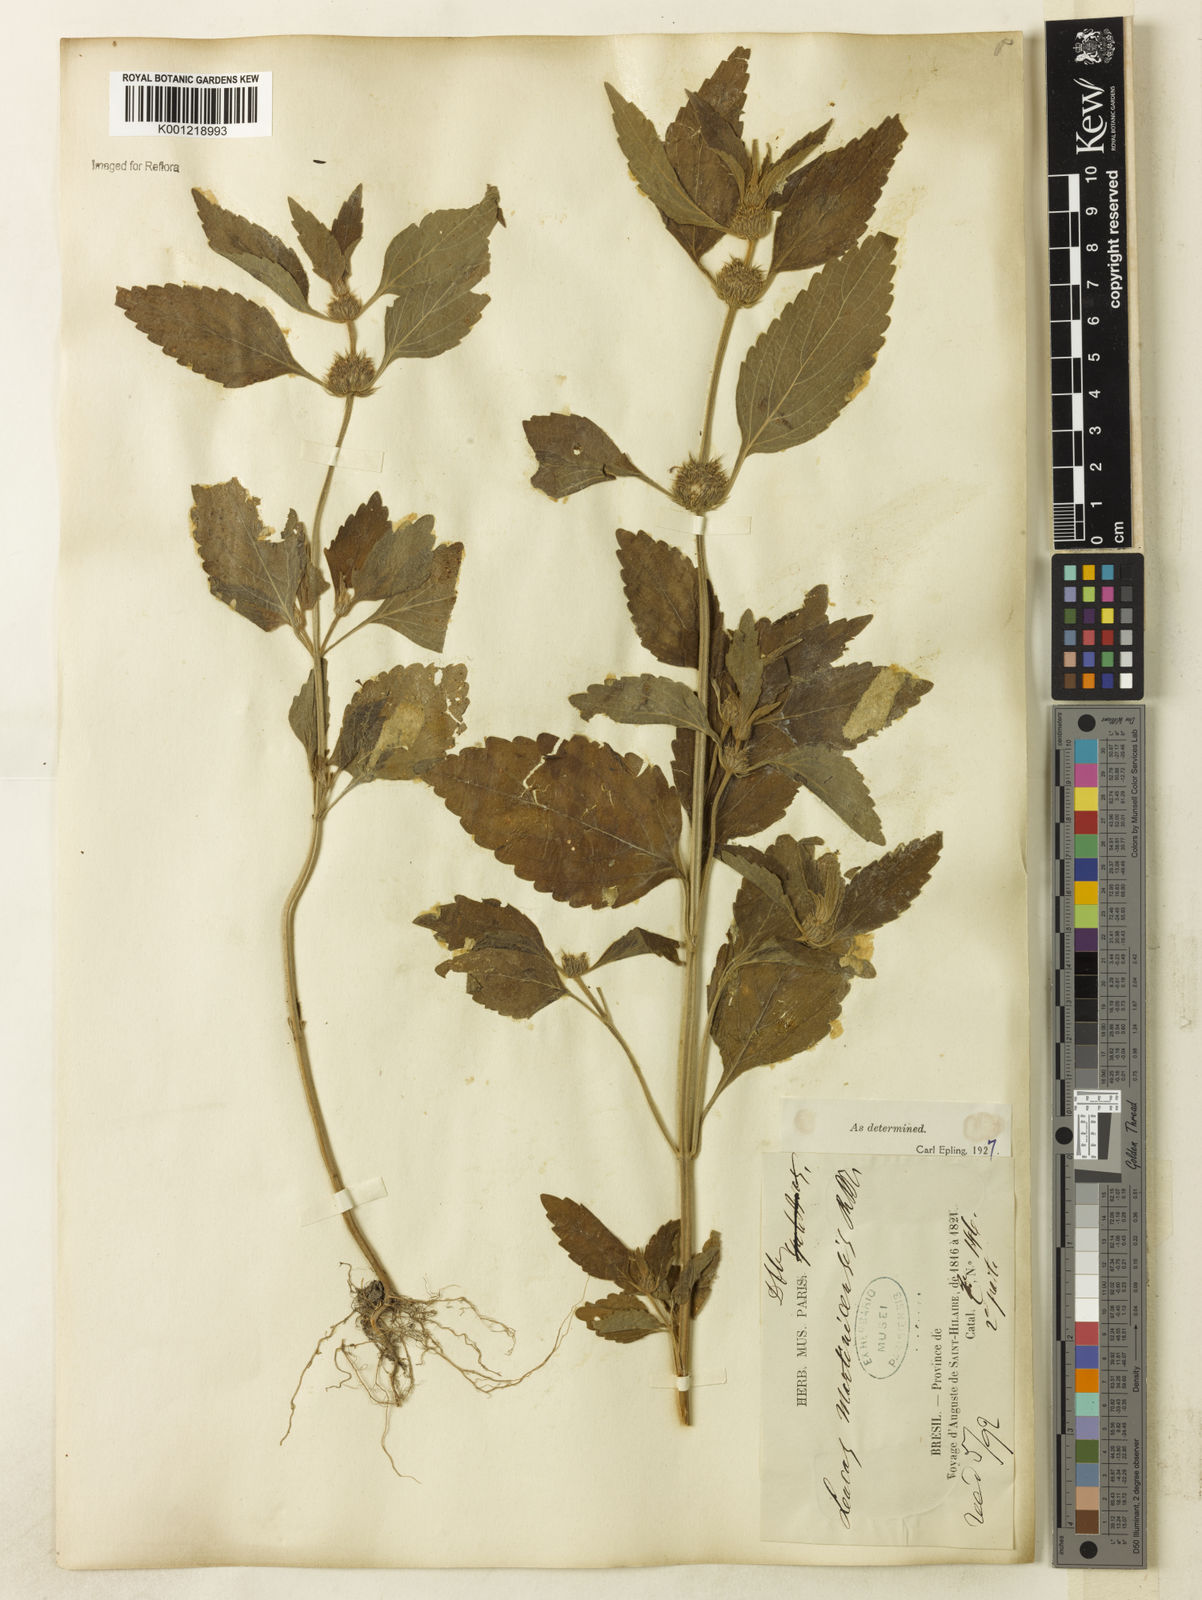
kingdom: Plantae
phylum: Tracheophyta
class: Magnoliopsida
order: Lamiales
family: Lamiaceae
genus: Leucas
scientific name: Leucas martinicensis
